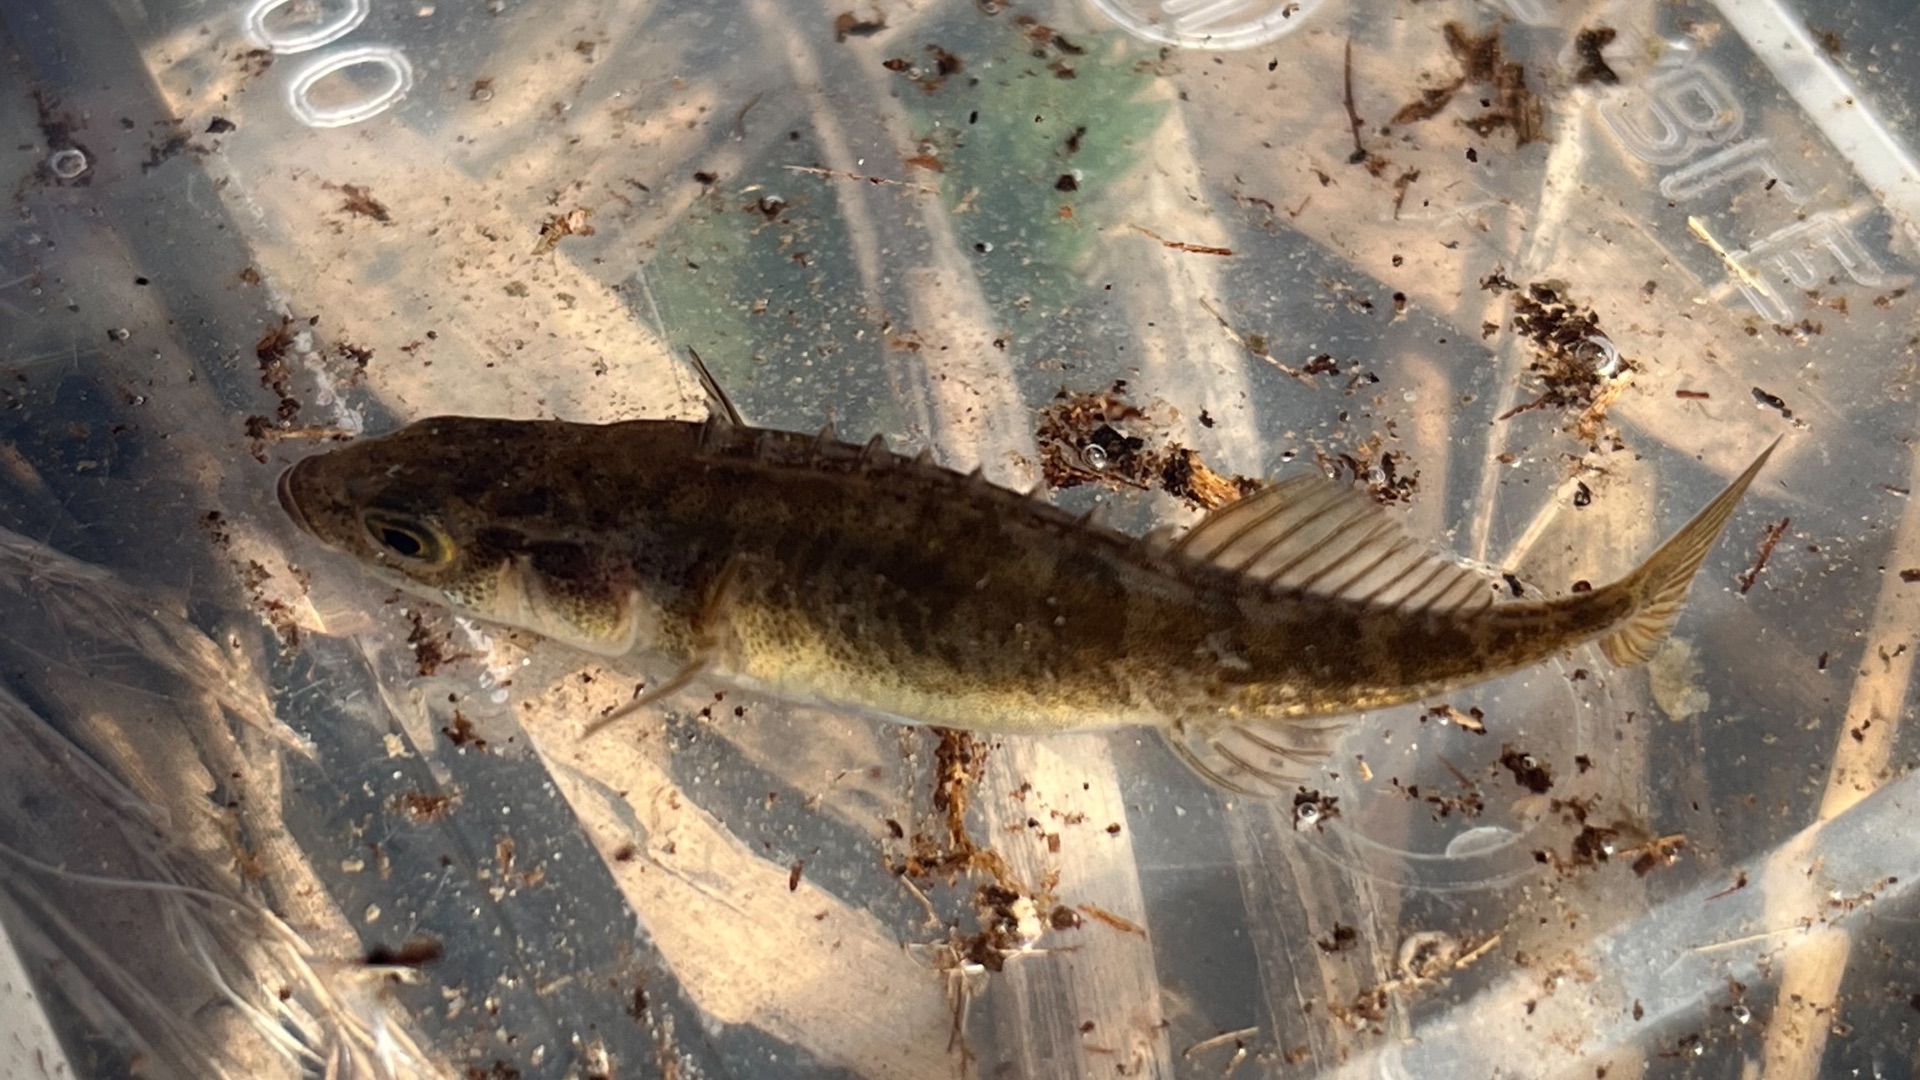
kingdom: Animalia
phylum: Chordata
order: Gasterosteiformes
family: Gasterosteidae
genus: Pungitius
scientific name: Pungitius pungitius
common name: Nipigget hundestejle
